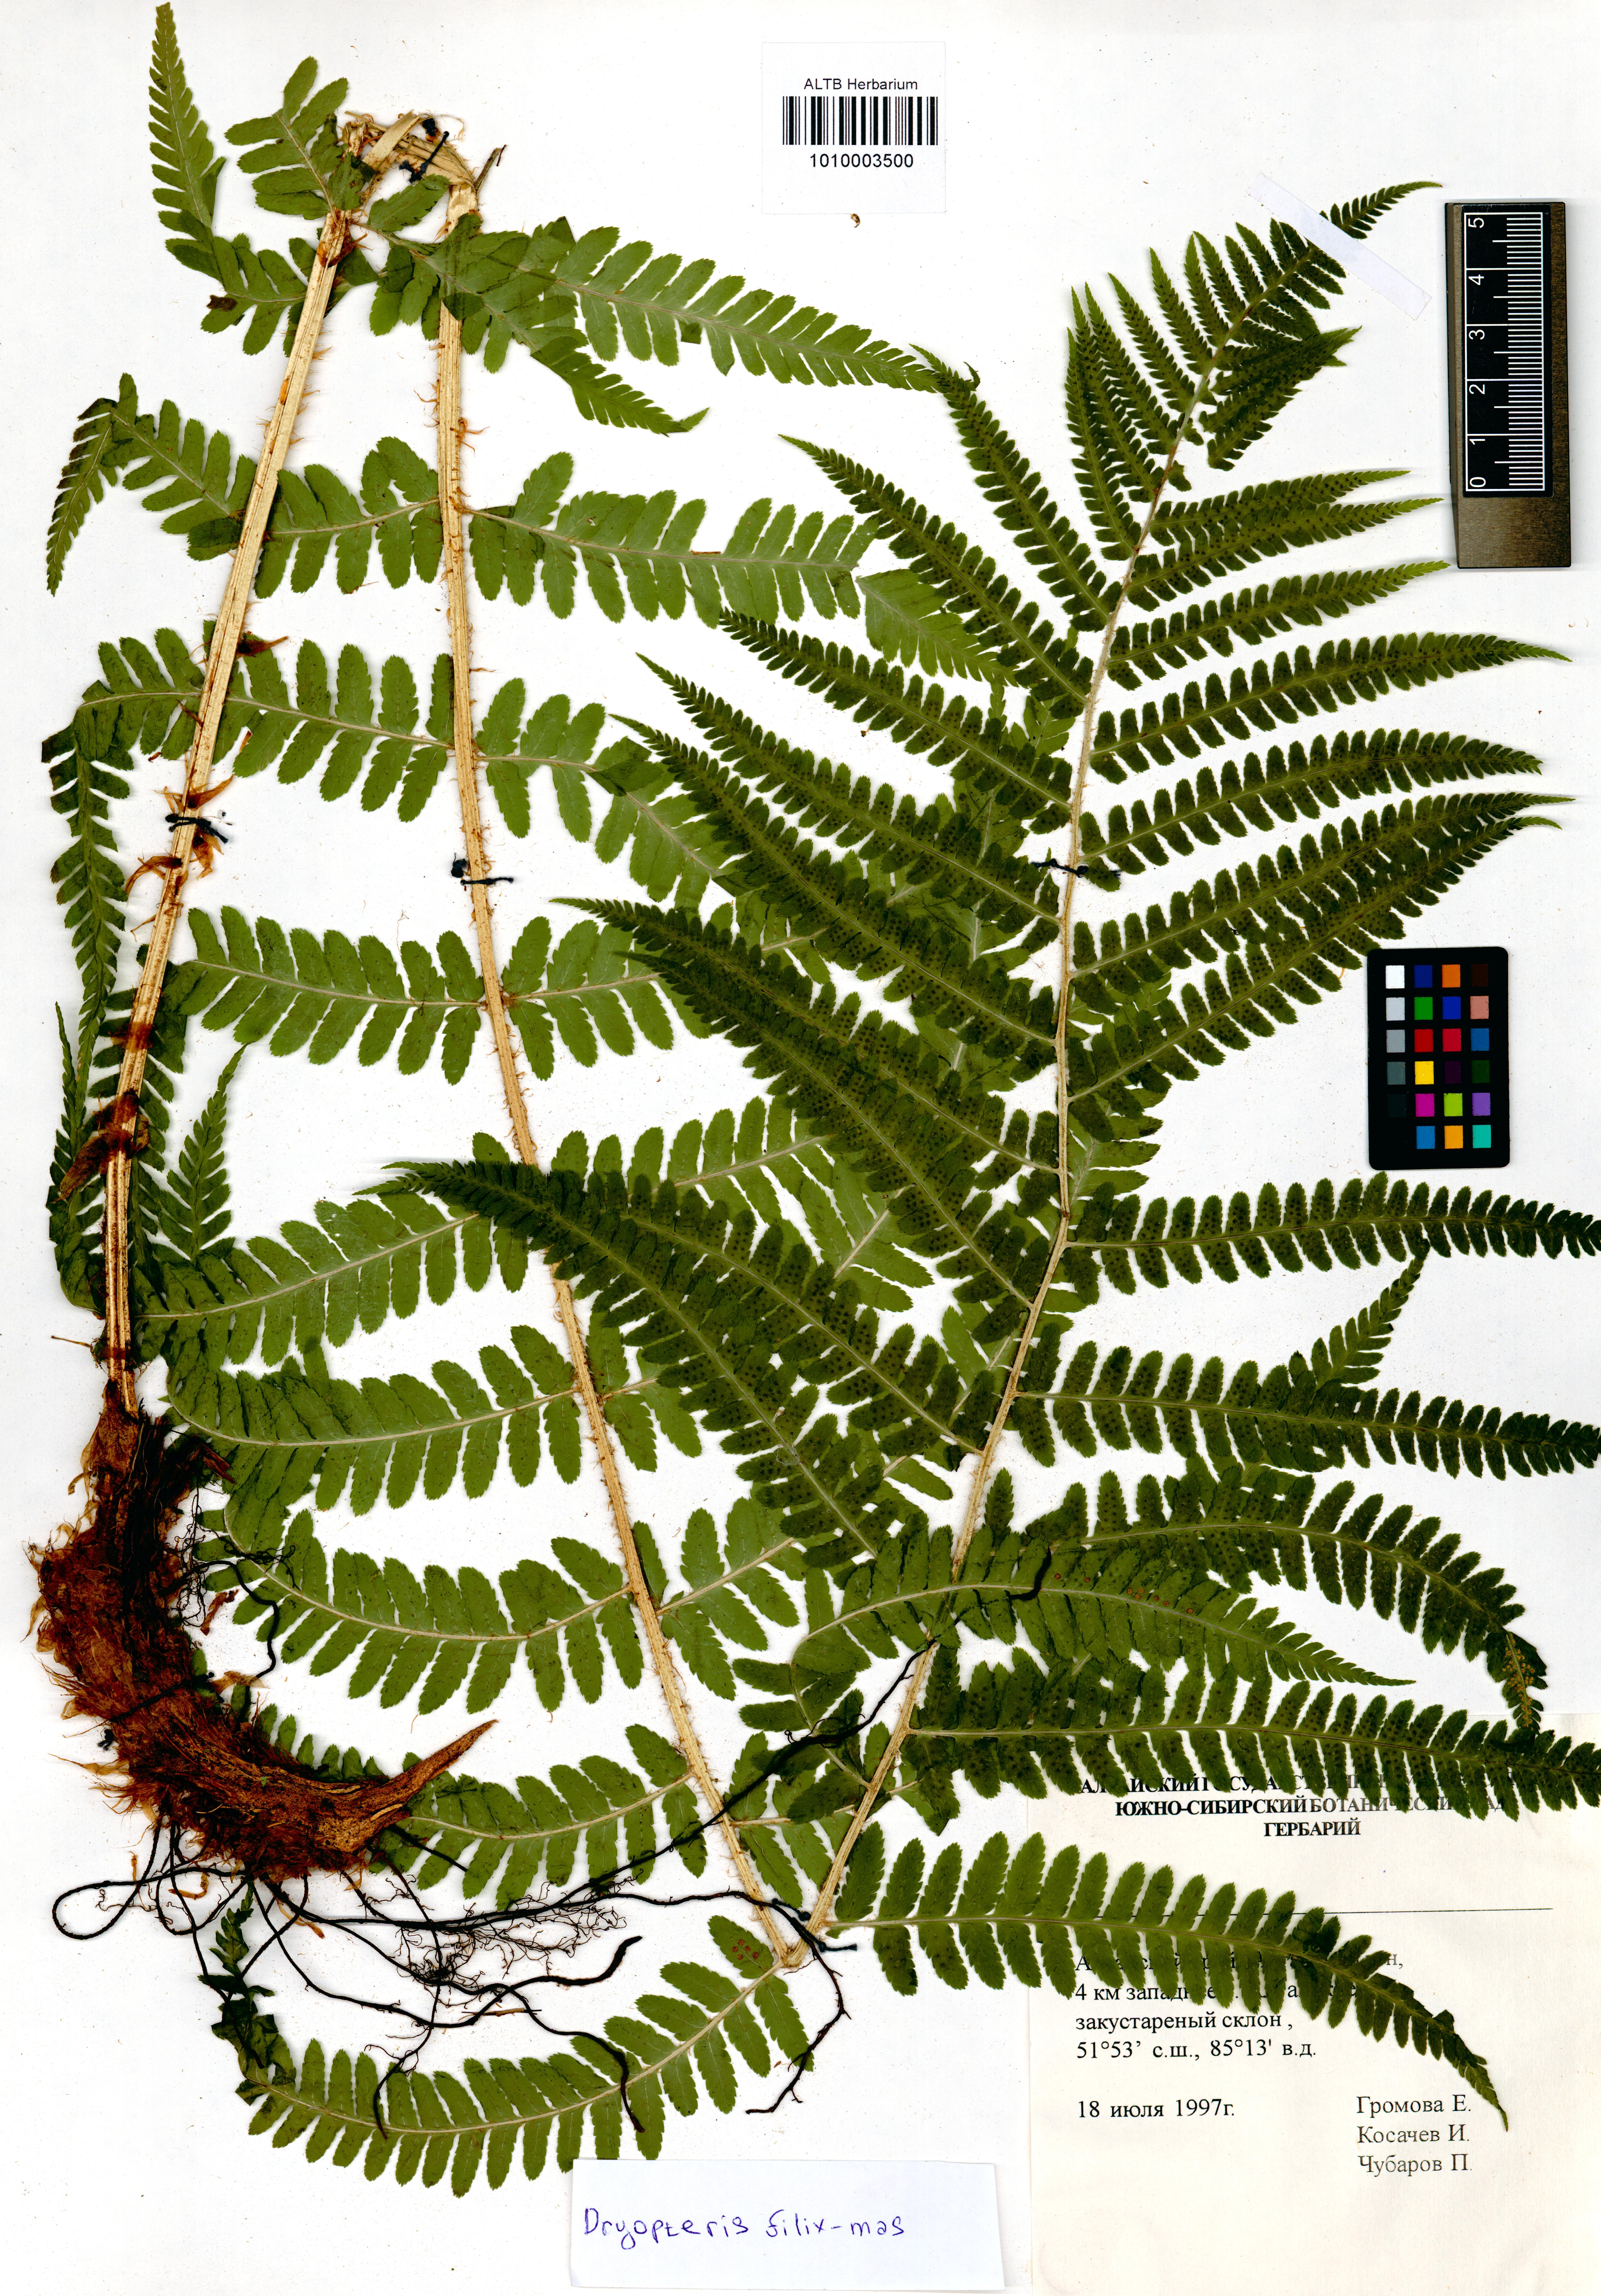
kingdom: Plantae
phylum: Tracheophyta
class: Polypodiopsida
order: Polypodiales
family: Dryopteridaceae
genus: Dryopteris
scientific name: Dryopteris filix-mas
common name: Male fern
